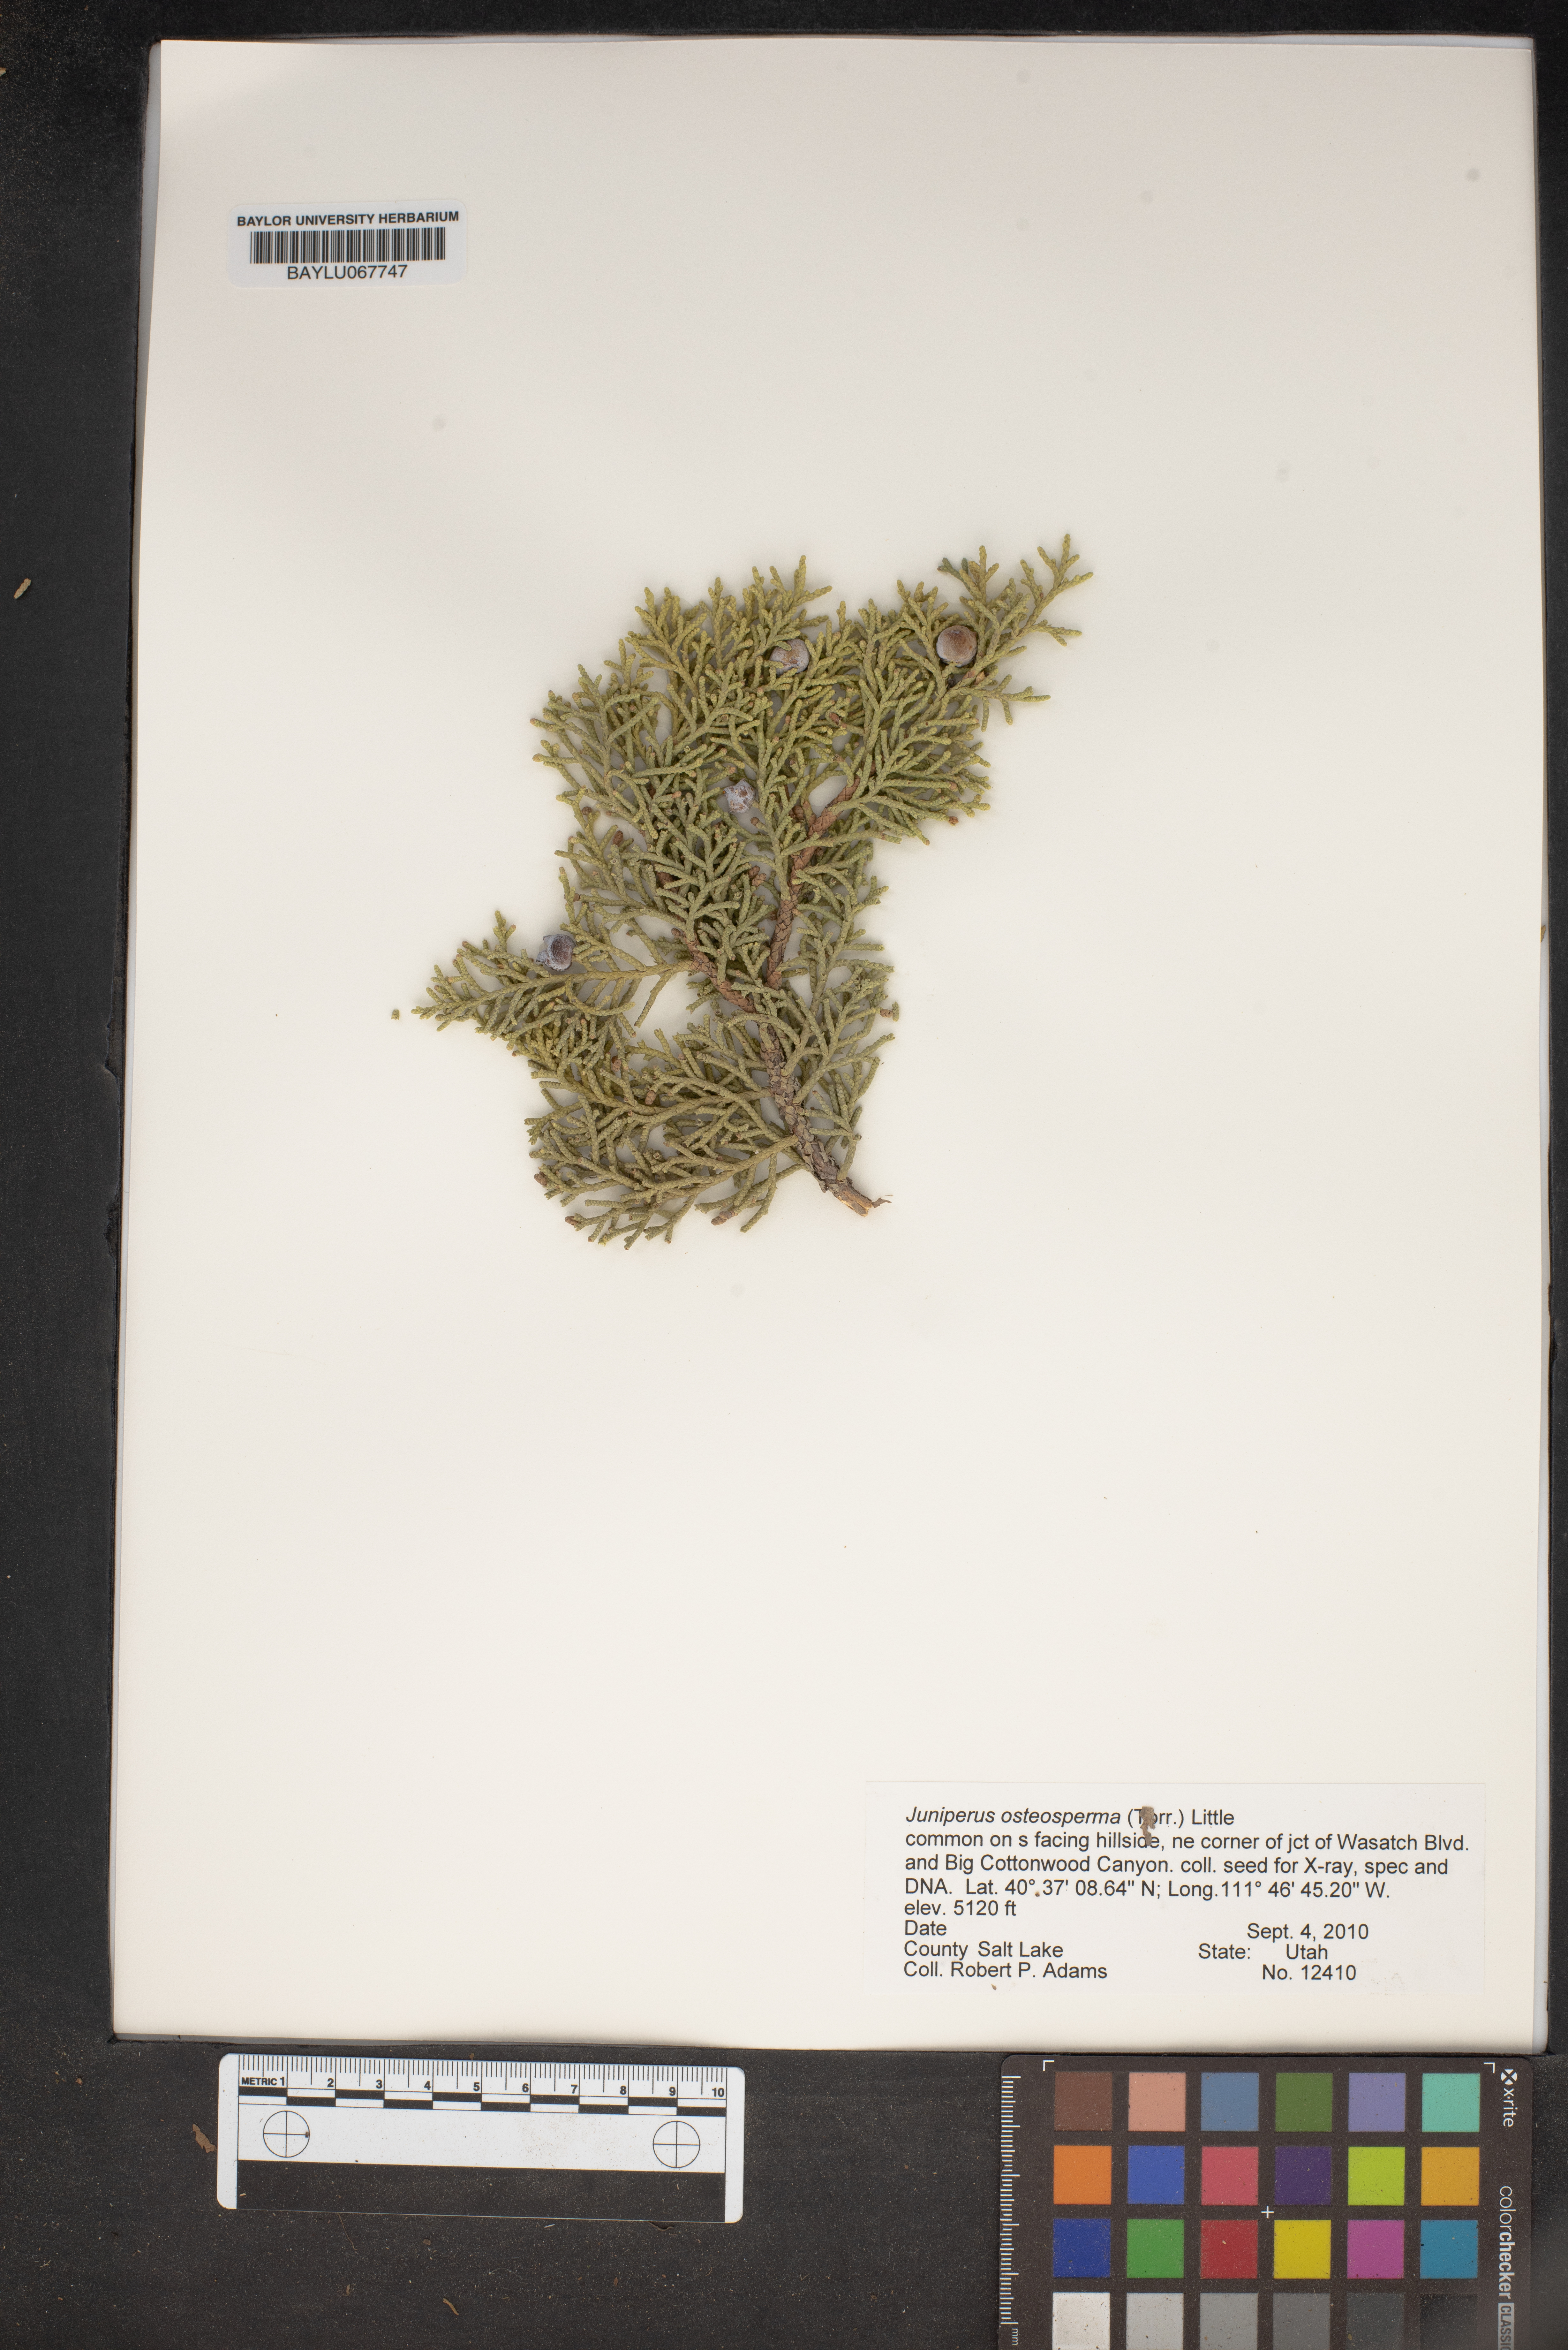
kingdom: Plantae
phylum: Tracheophyta
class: Pinopsida
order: Pinales
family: Cupressaceae
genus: Juniperus
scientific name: Juniperus osteosperma
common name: Utah juniper
